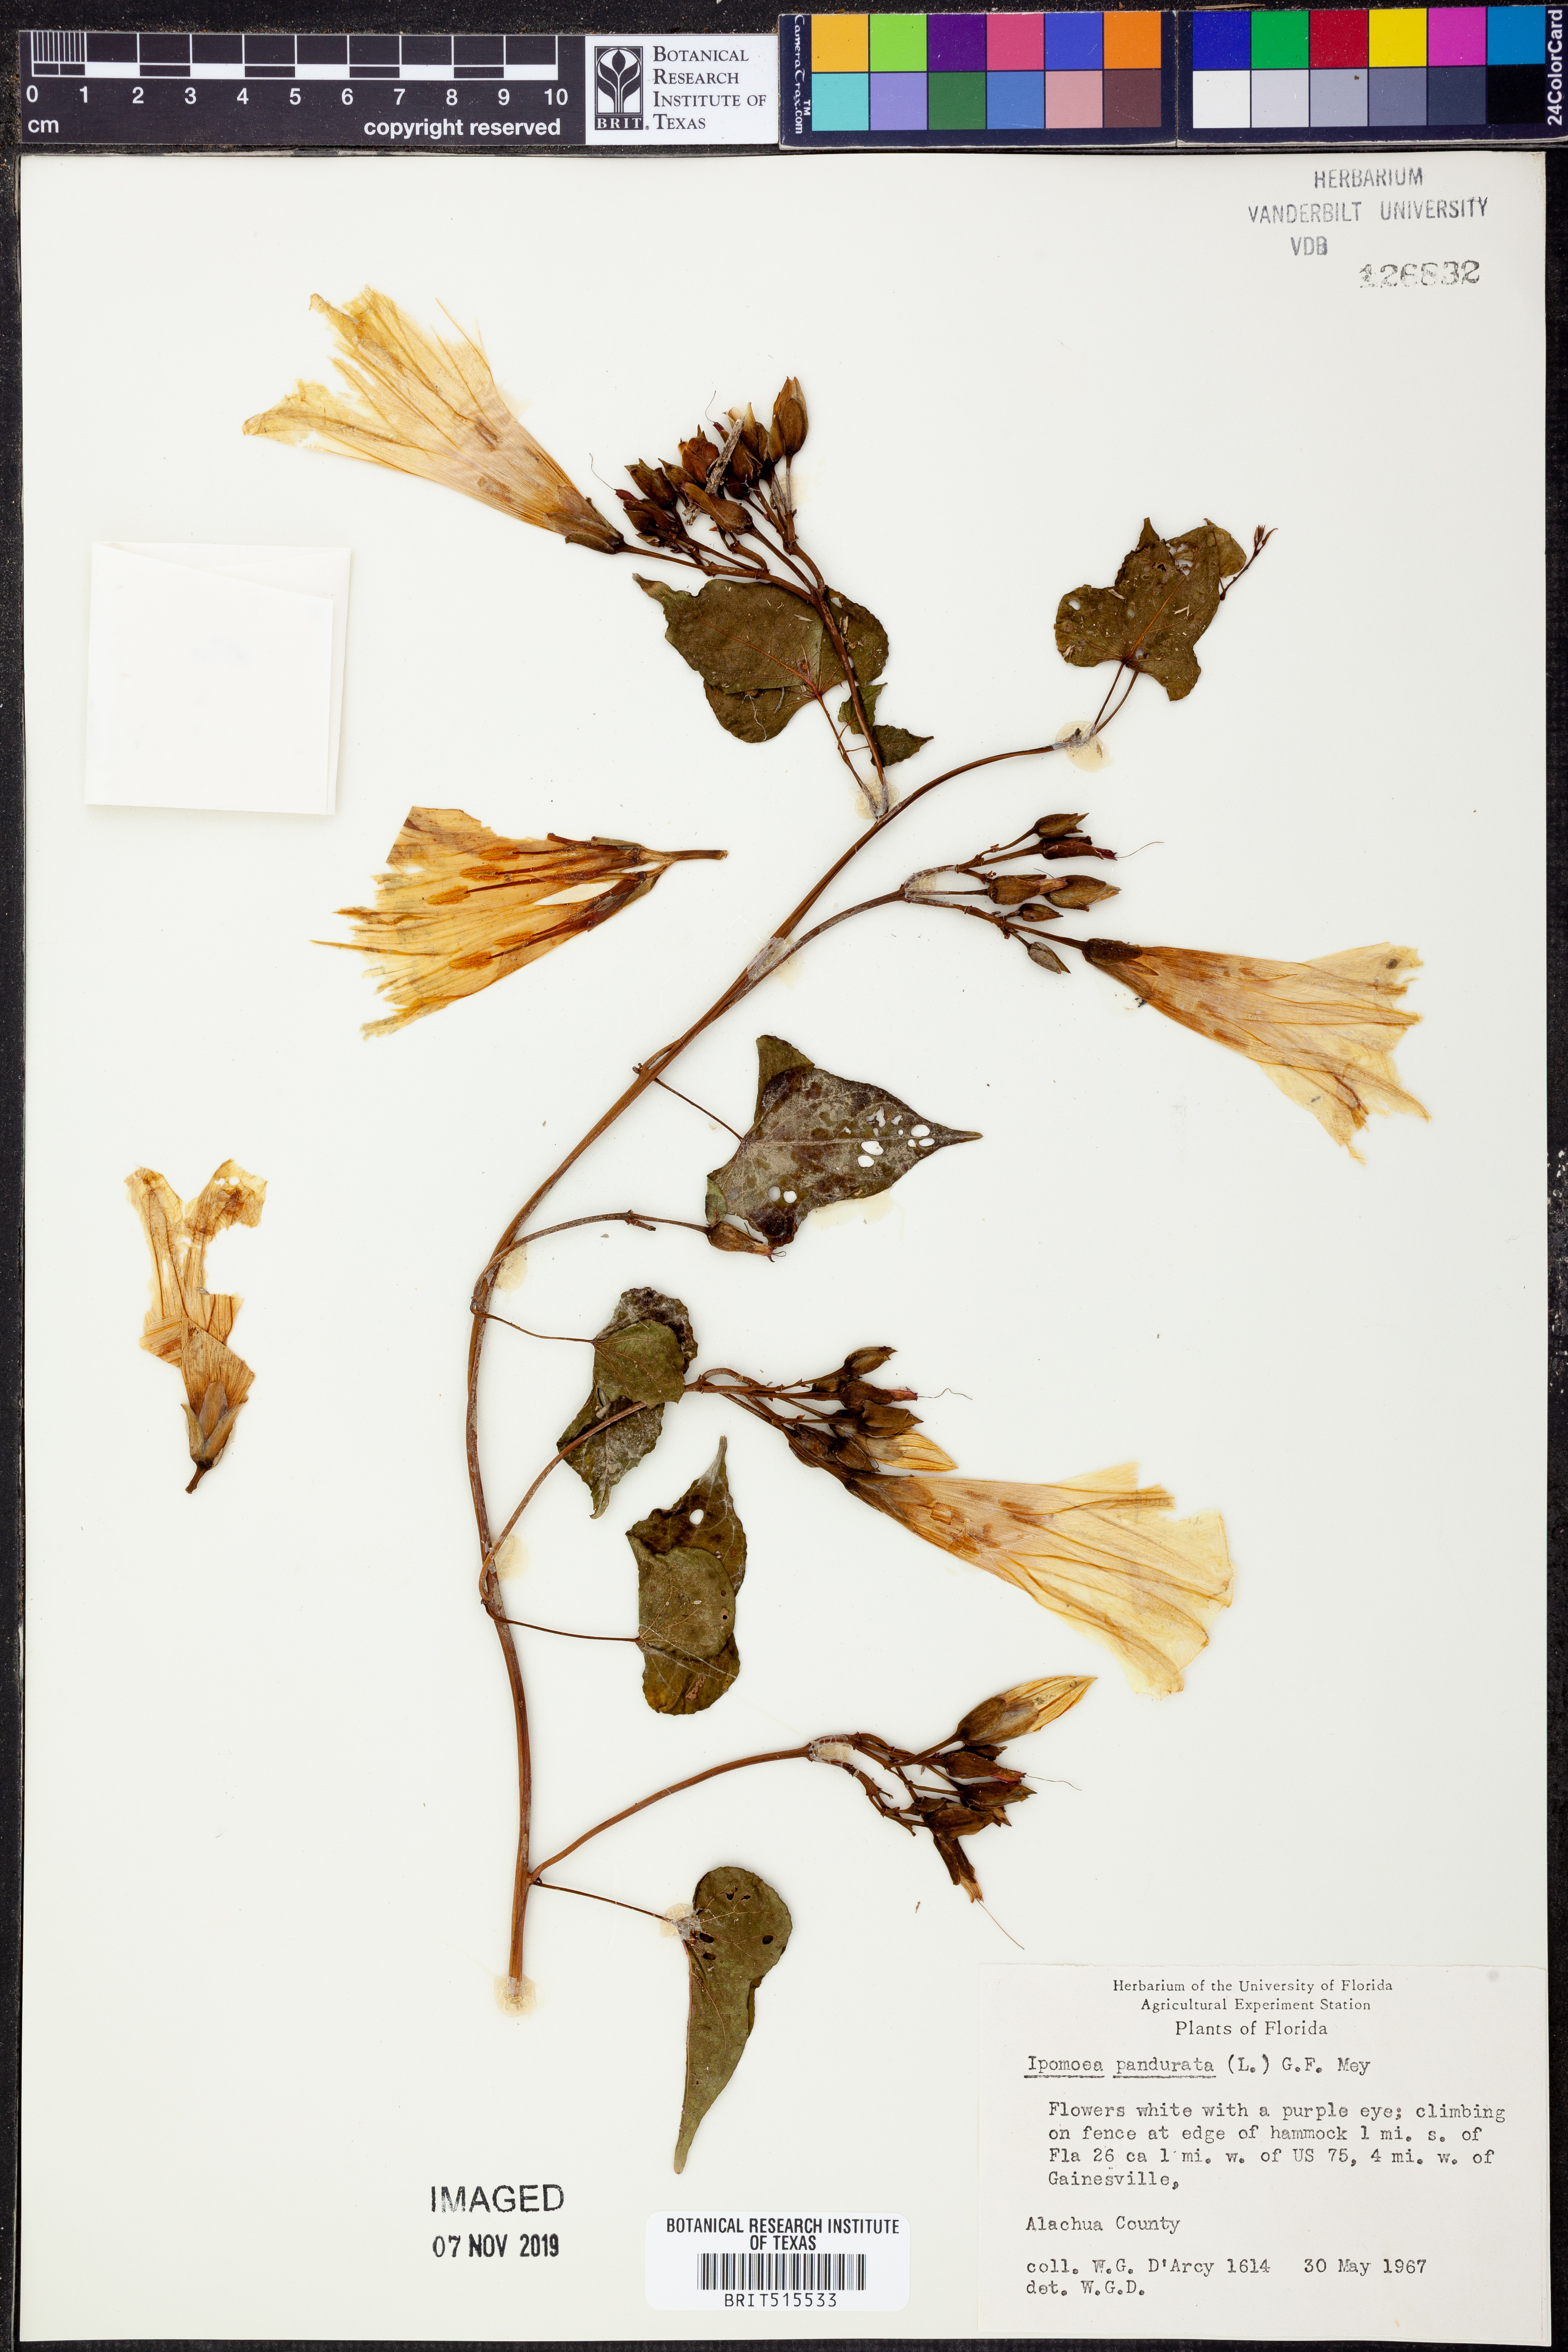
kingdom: Plantae
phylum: Tracheophyta
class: Magnoliopsida
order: Solanales
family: Convolvulaceae
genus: Ipomoea
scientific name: Ipomoea pandurata
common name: Man-of-the-earth
